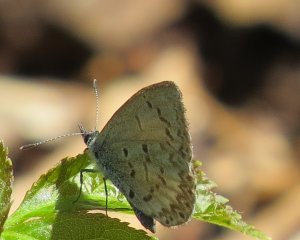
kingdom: Animalia
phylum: Arthropoda
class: Insecta
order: Lepidoptera
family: Lycaenidae
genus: Celastrina
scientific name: Celastrina lucia
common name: Northern Spring Azure
